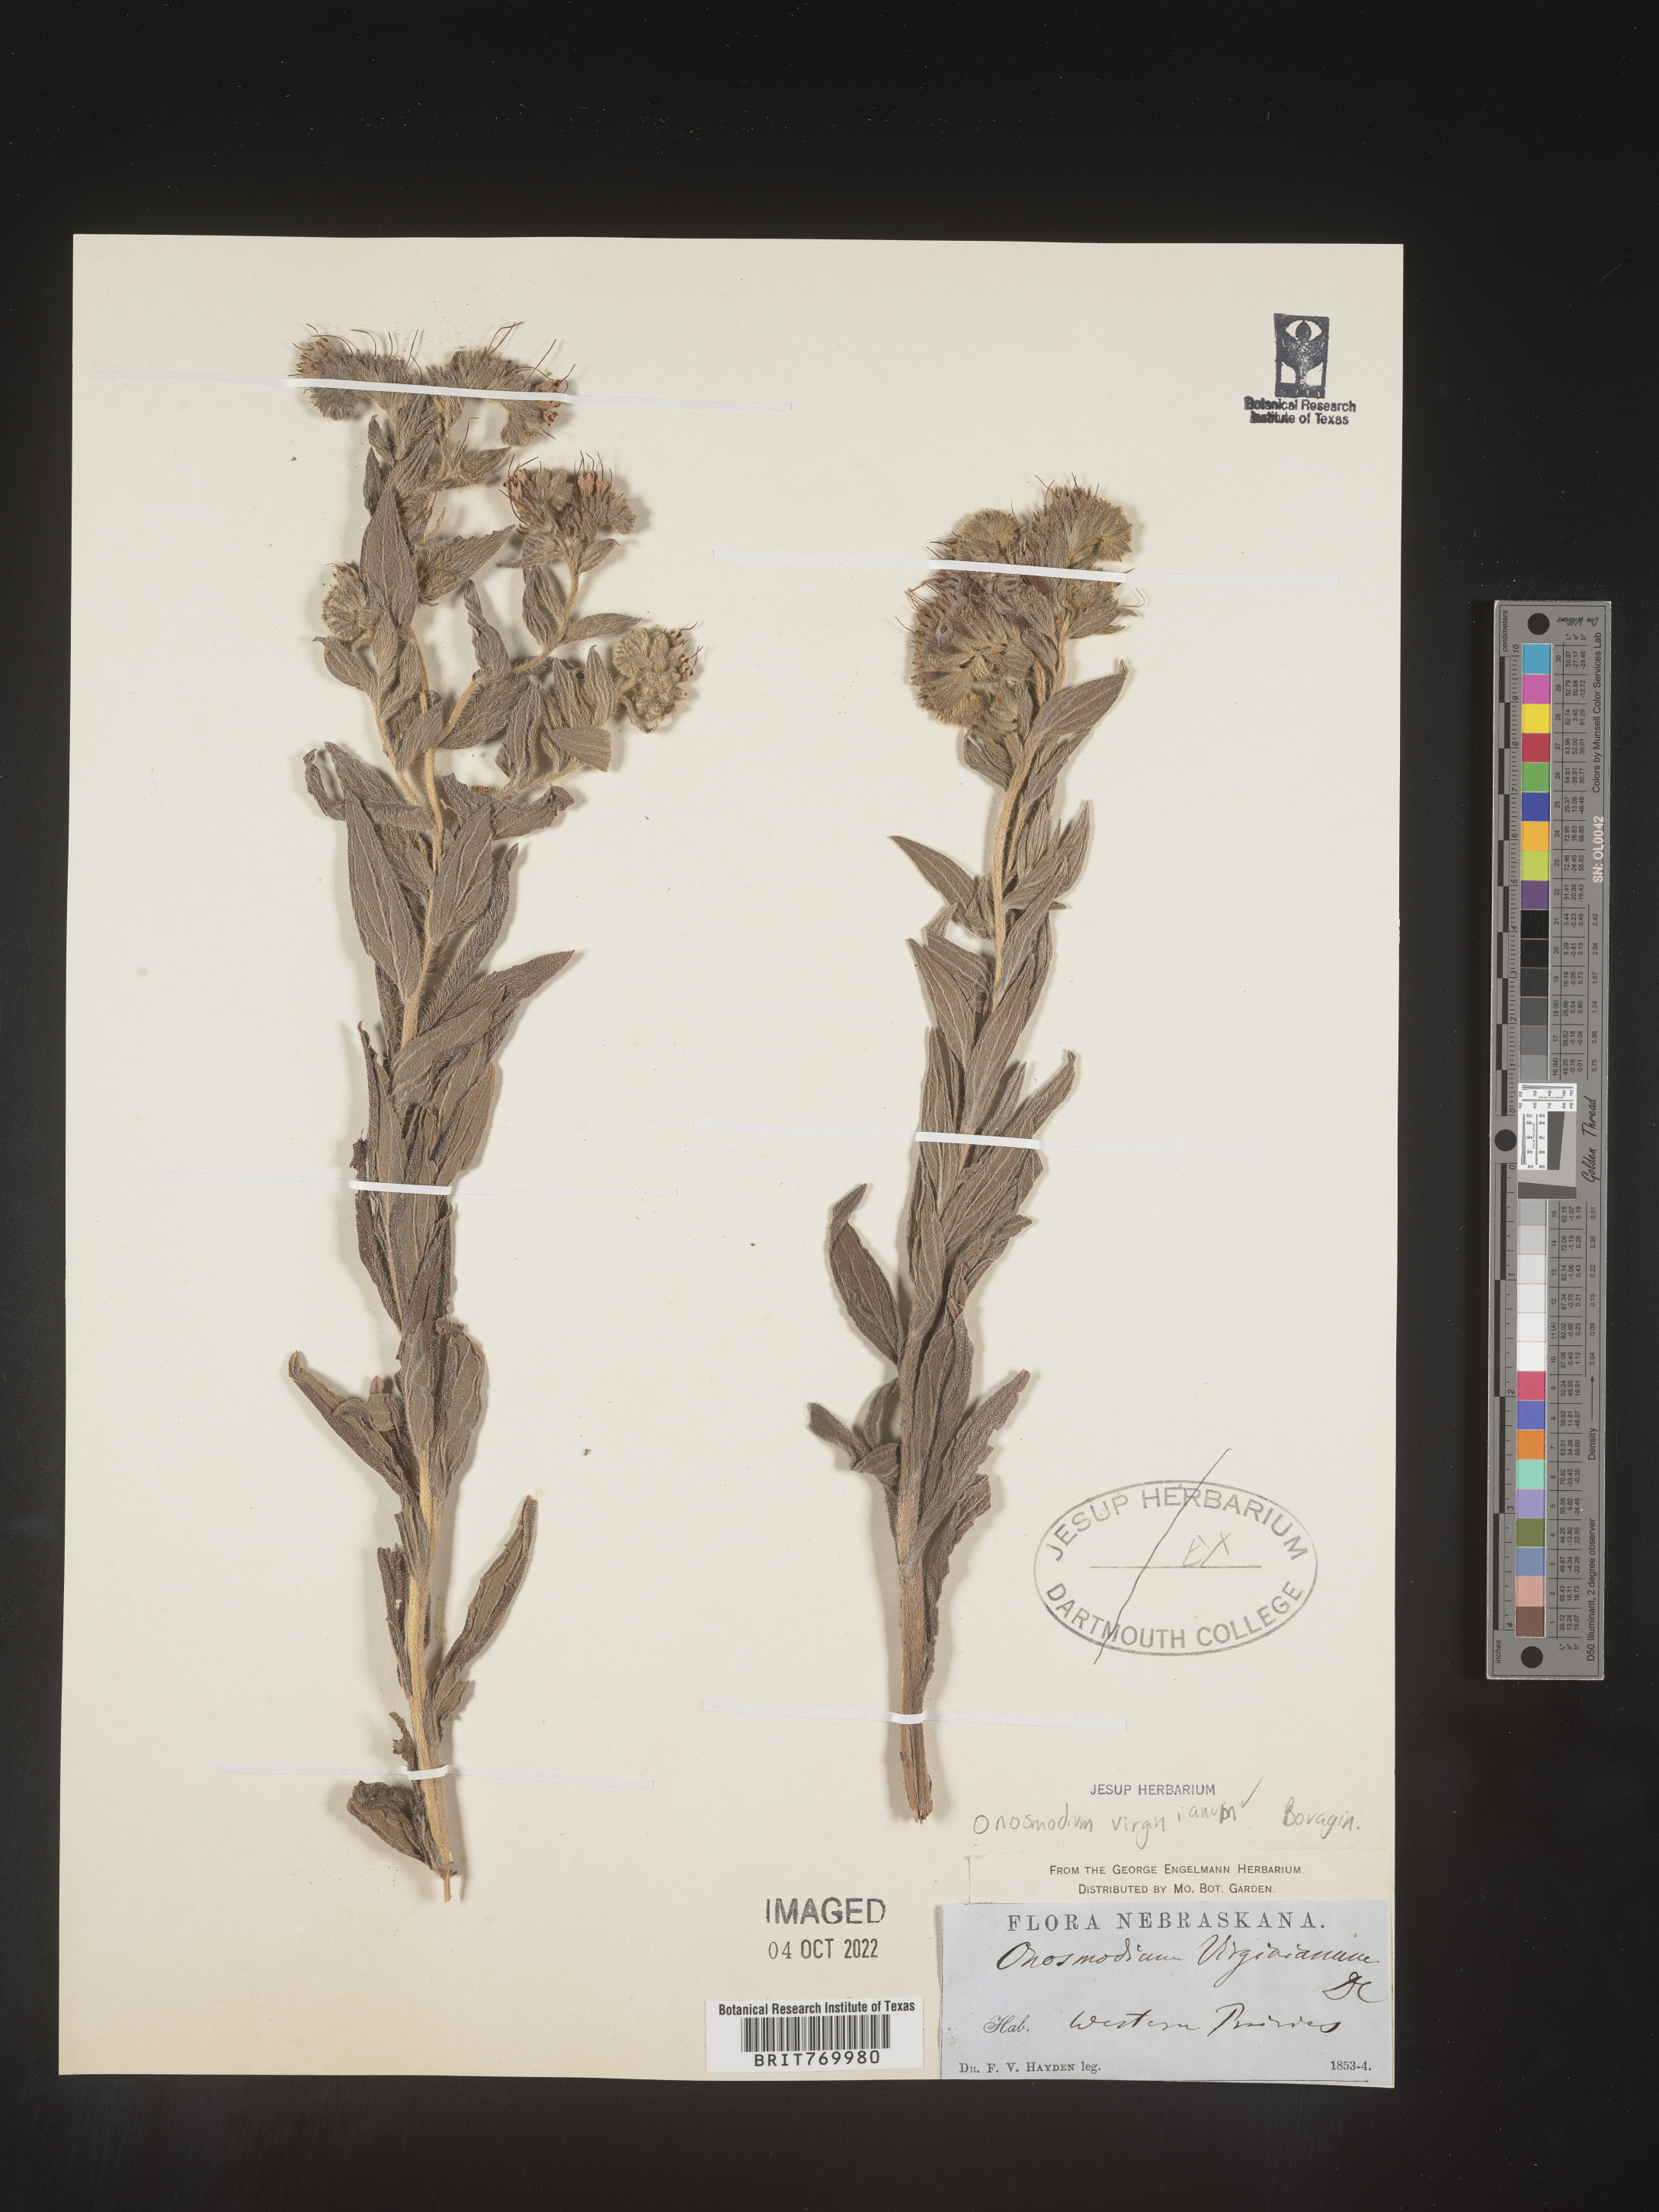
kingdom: Plantae
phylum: Tracheophyta
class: Magnoliopsida
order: Boraginales
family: Boraginaceae
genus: Lithospermum
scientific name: Lithospermum virginianum
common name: Eastern false gromwell
